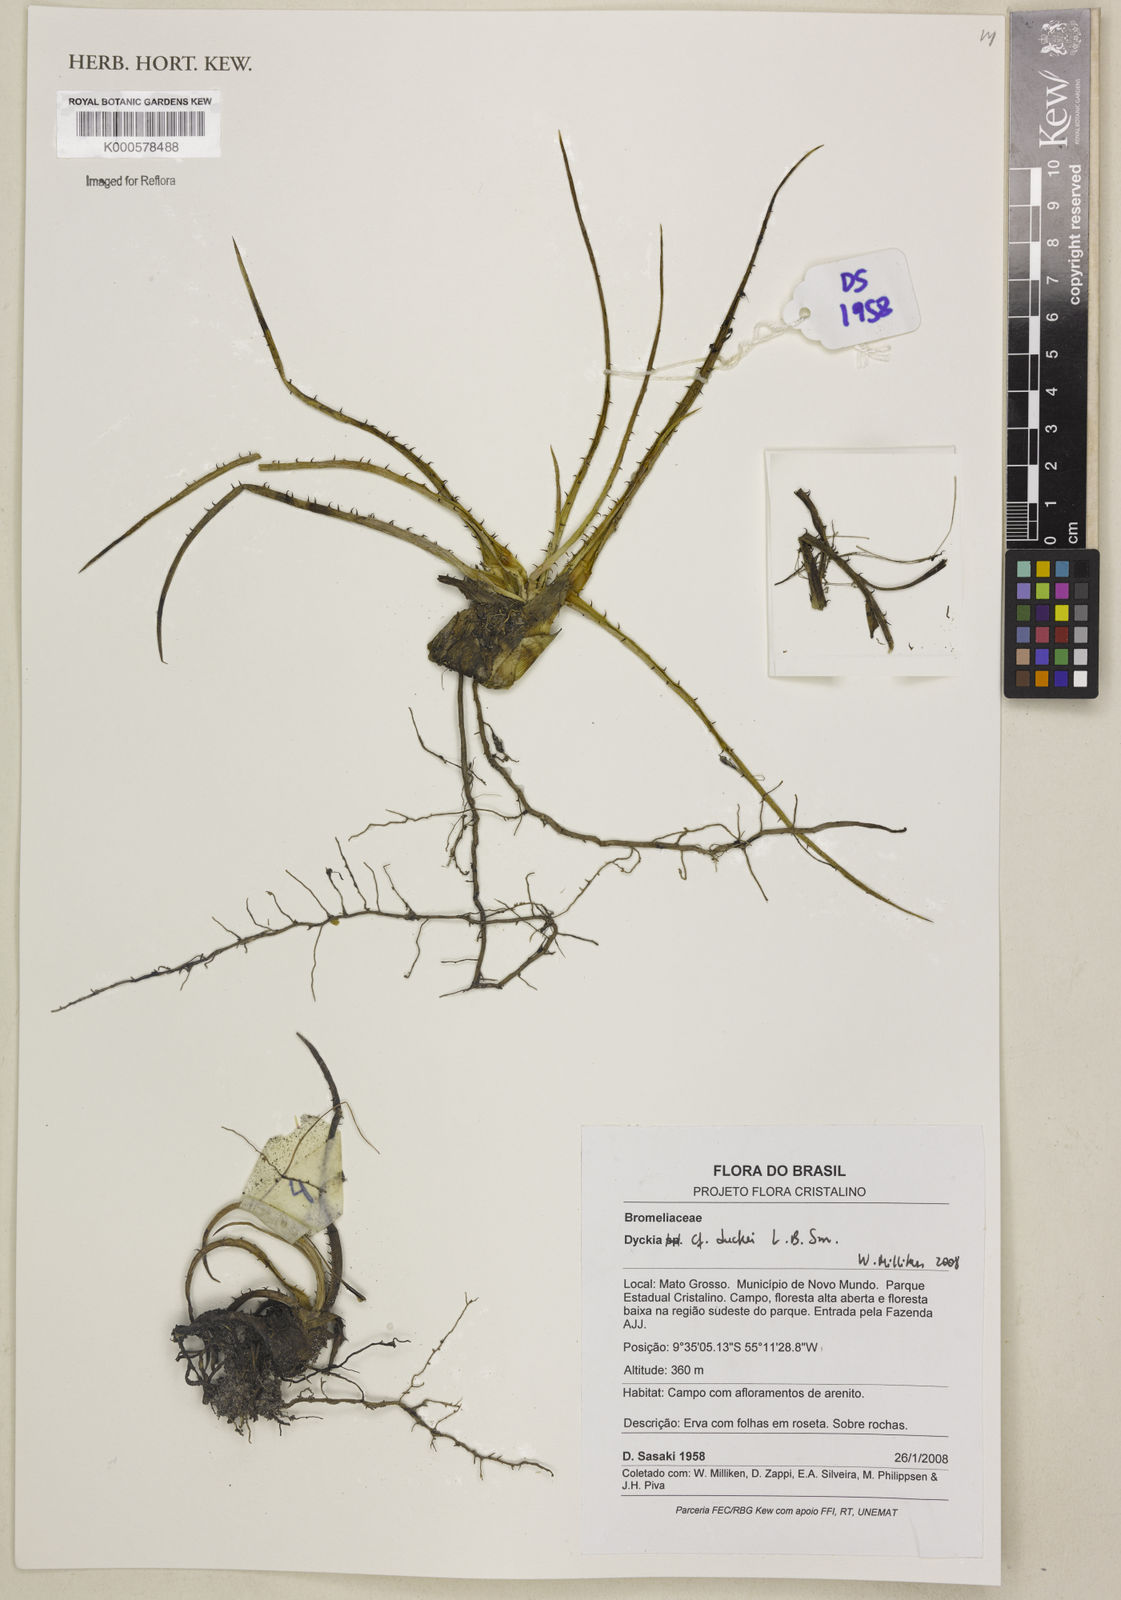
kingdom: Plantae
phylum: Tracheophyta
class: Liliopsida
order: Poales
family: Bromeliaceae
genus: Dyckia
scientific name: Dyckia duckei
